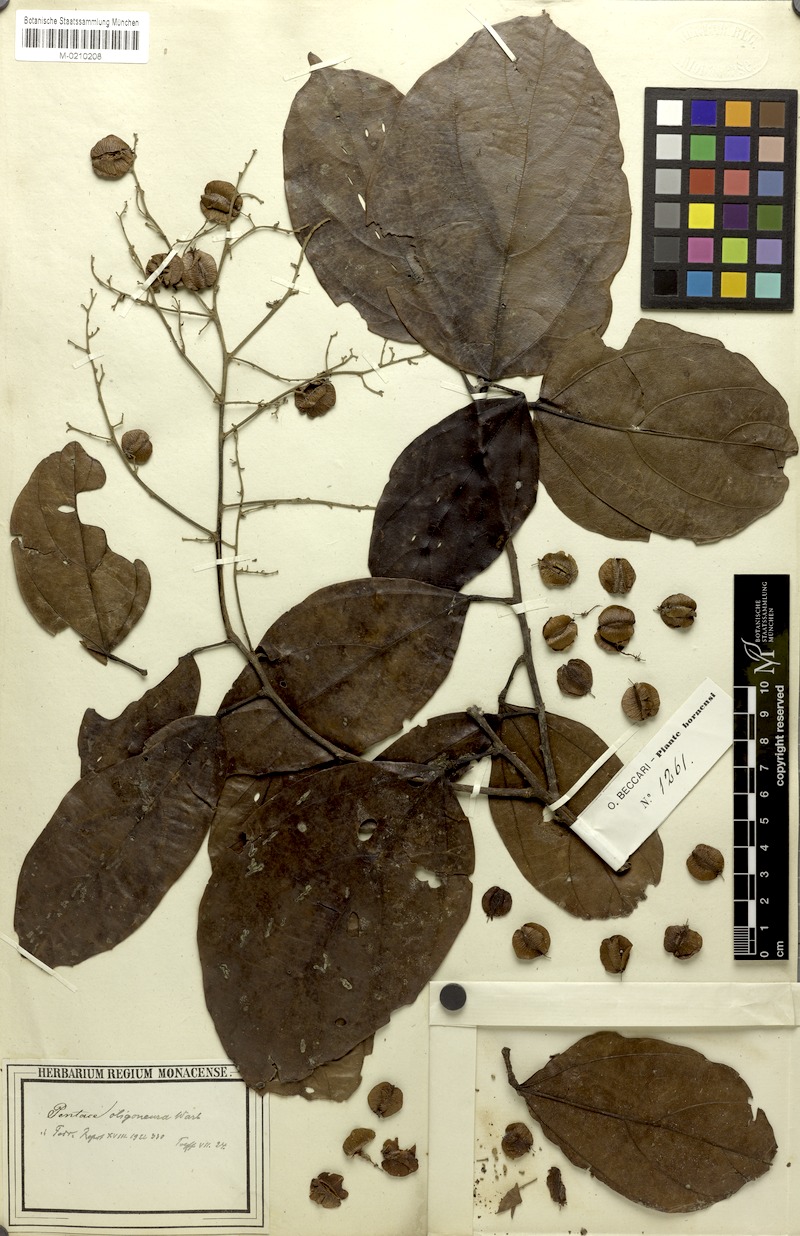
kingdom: Plantae
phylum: Tracheophyta
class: Magnoliopsida
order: Malvales
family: Malvaceae
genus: Pentace
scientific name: Pentace borneensis
